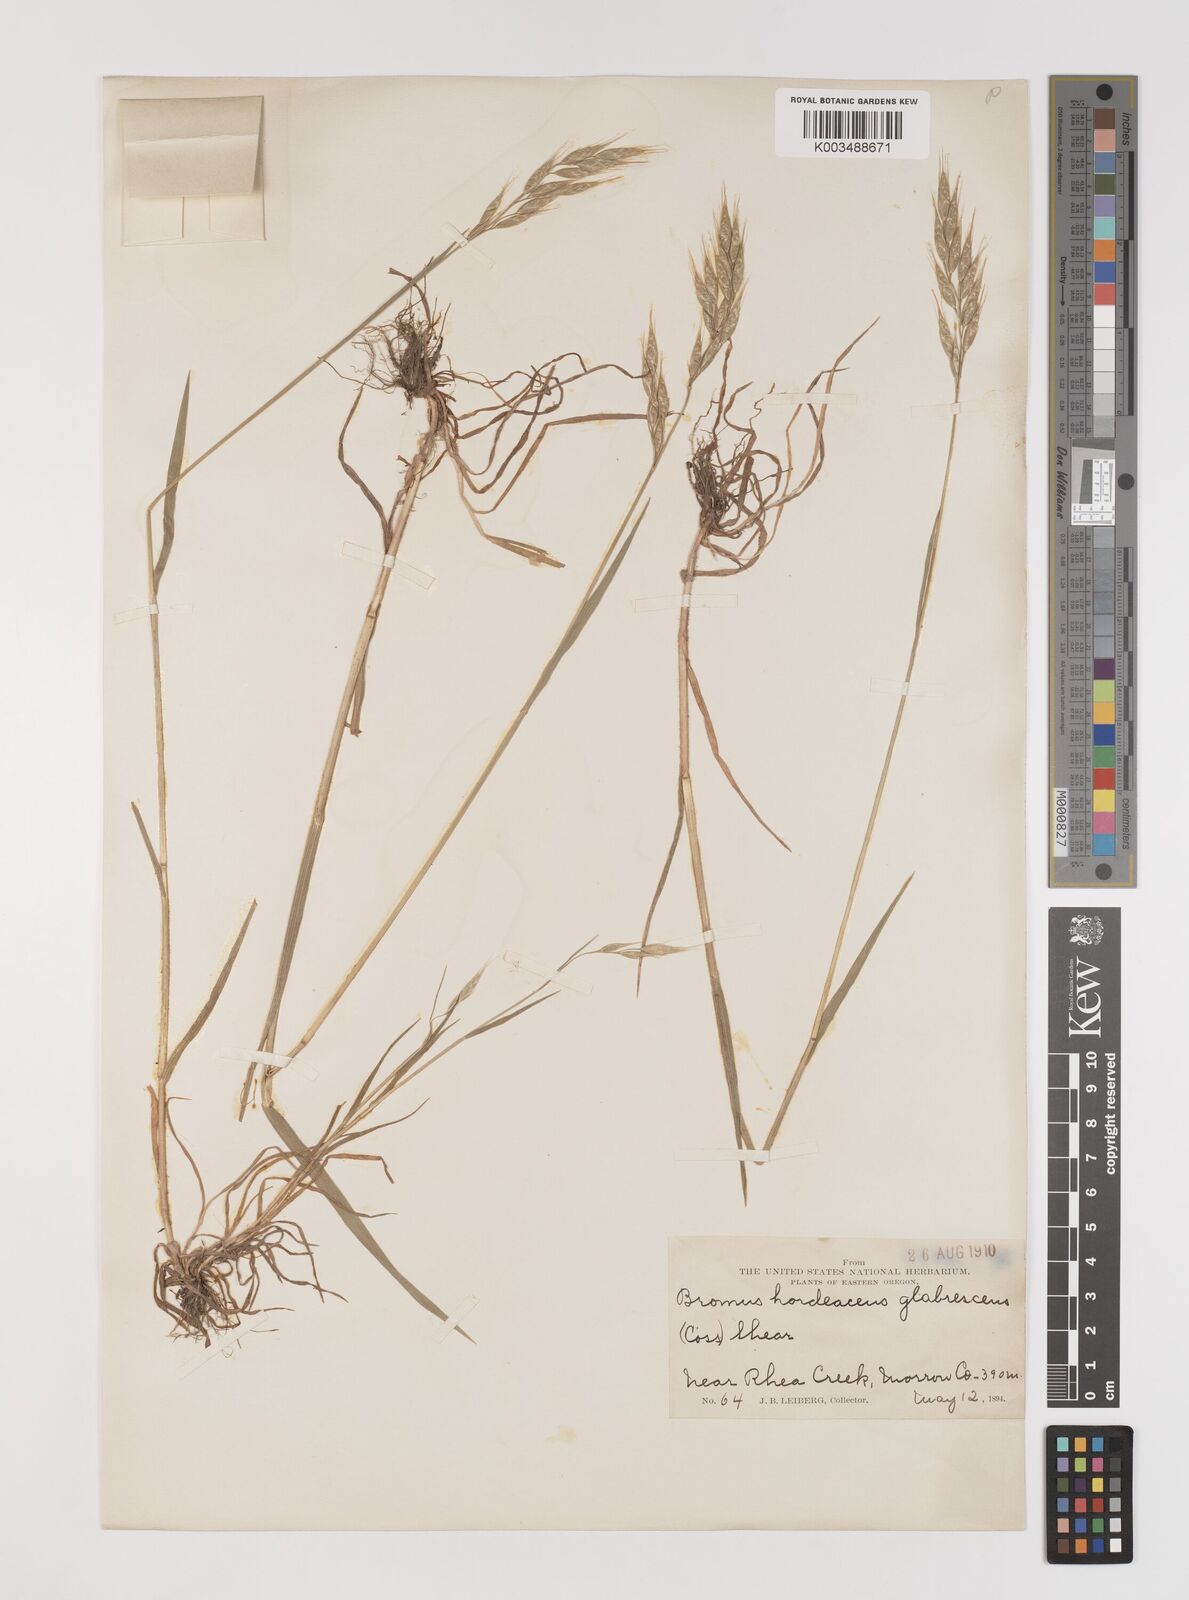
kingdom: Plantae
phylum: Tracheophyta
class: Liliopsida
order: Poales
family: Poaceae
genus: Bromus
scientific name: Bromus hordeaceus
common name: Soft brome
